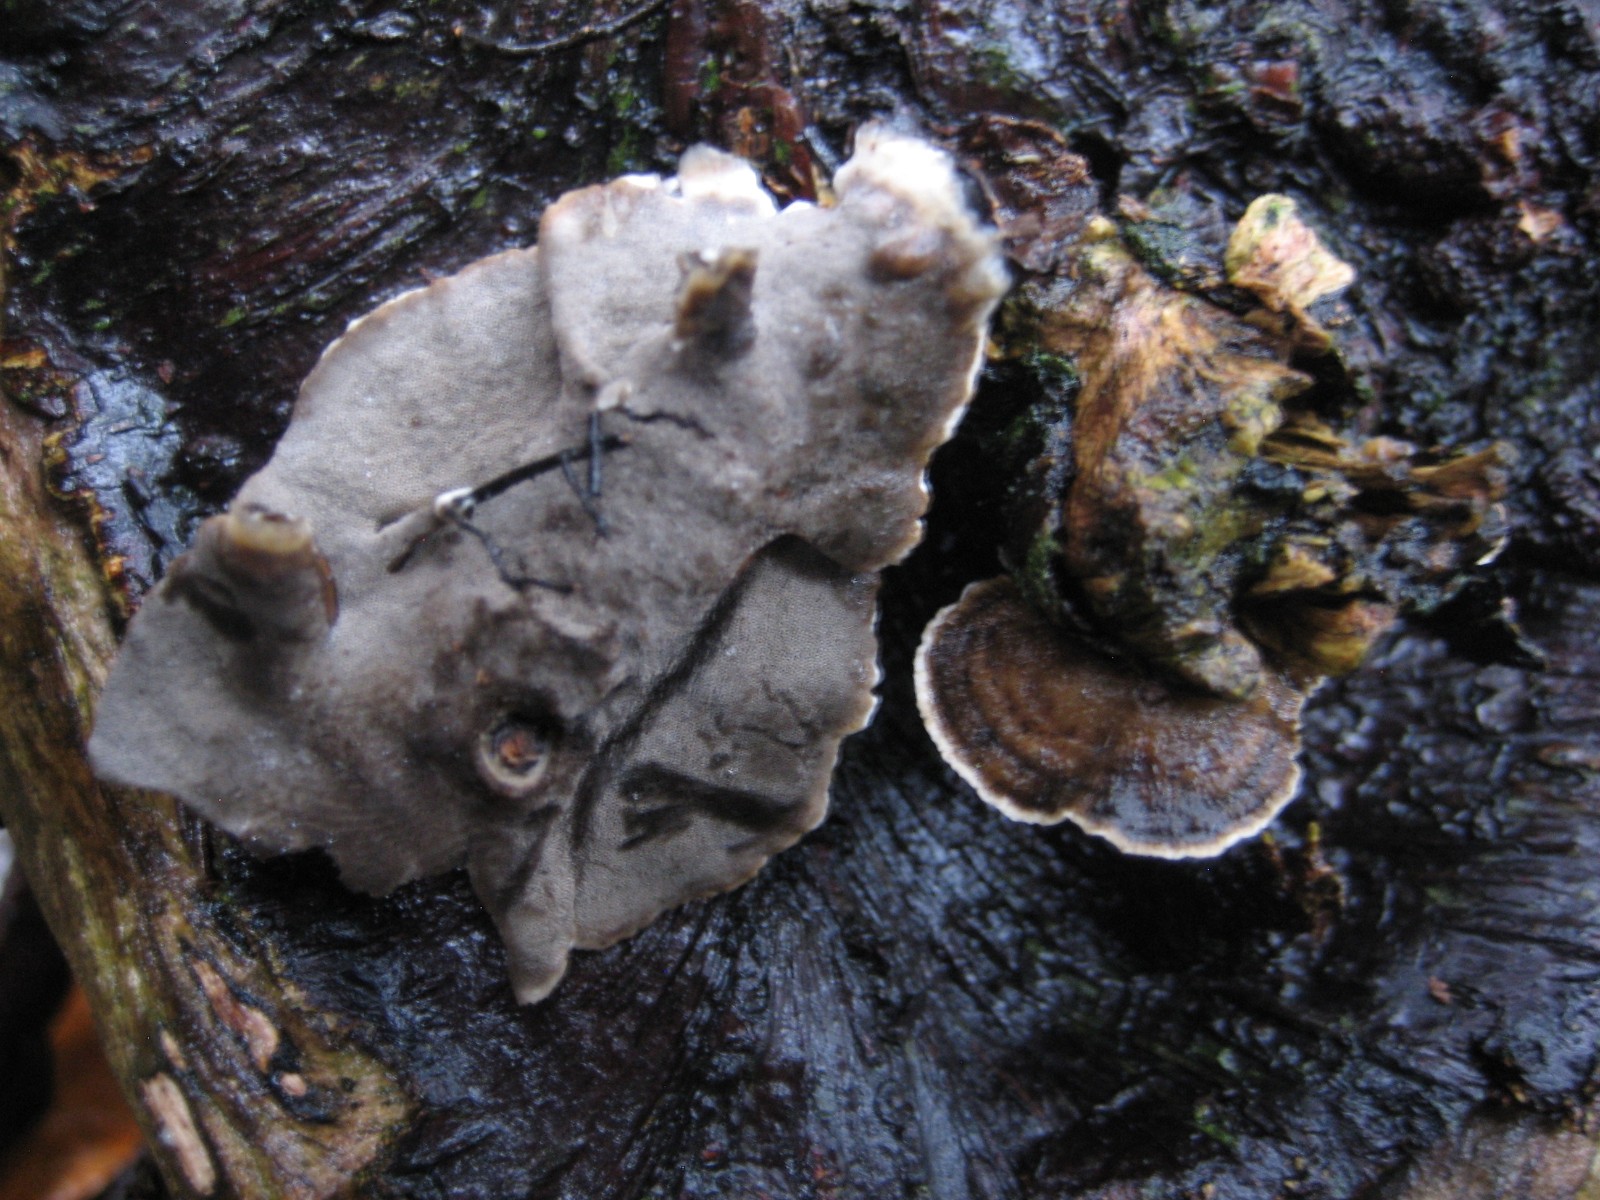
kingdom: Fungi
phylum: Basidiomycota
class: Agaricomycetes
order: Polyporales
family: Phanerochaetaceae
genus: Bjerkandera
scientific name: Bjerkandera adusta
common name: sveden sodporesvamp
